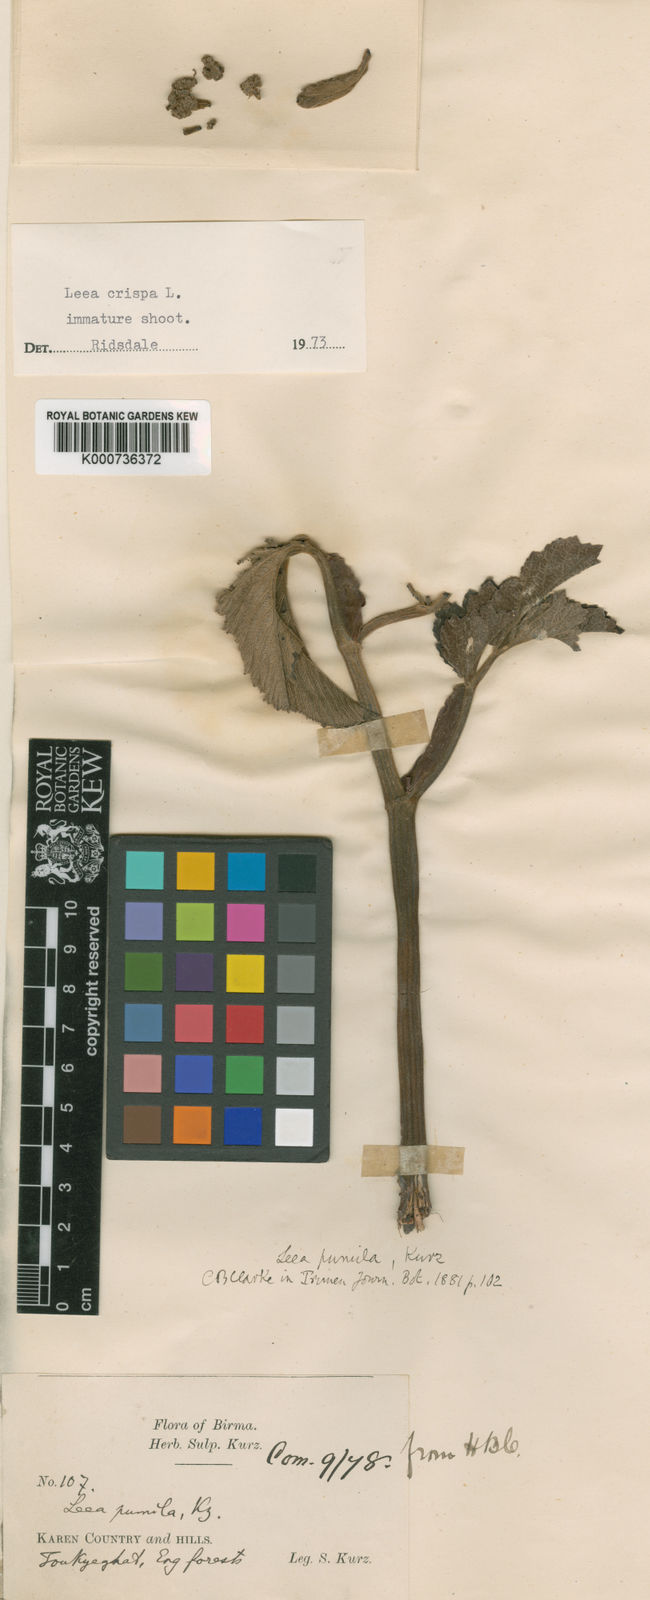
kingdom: Plantae
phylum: Tracheophyta
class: Magnoliopsida
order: Vitales
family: Vitaceae
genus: Leea
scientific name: Leea asiatica
